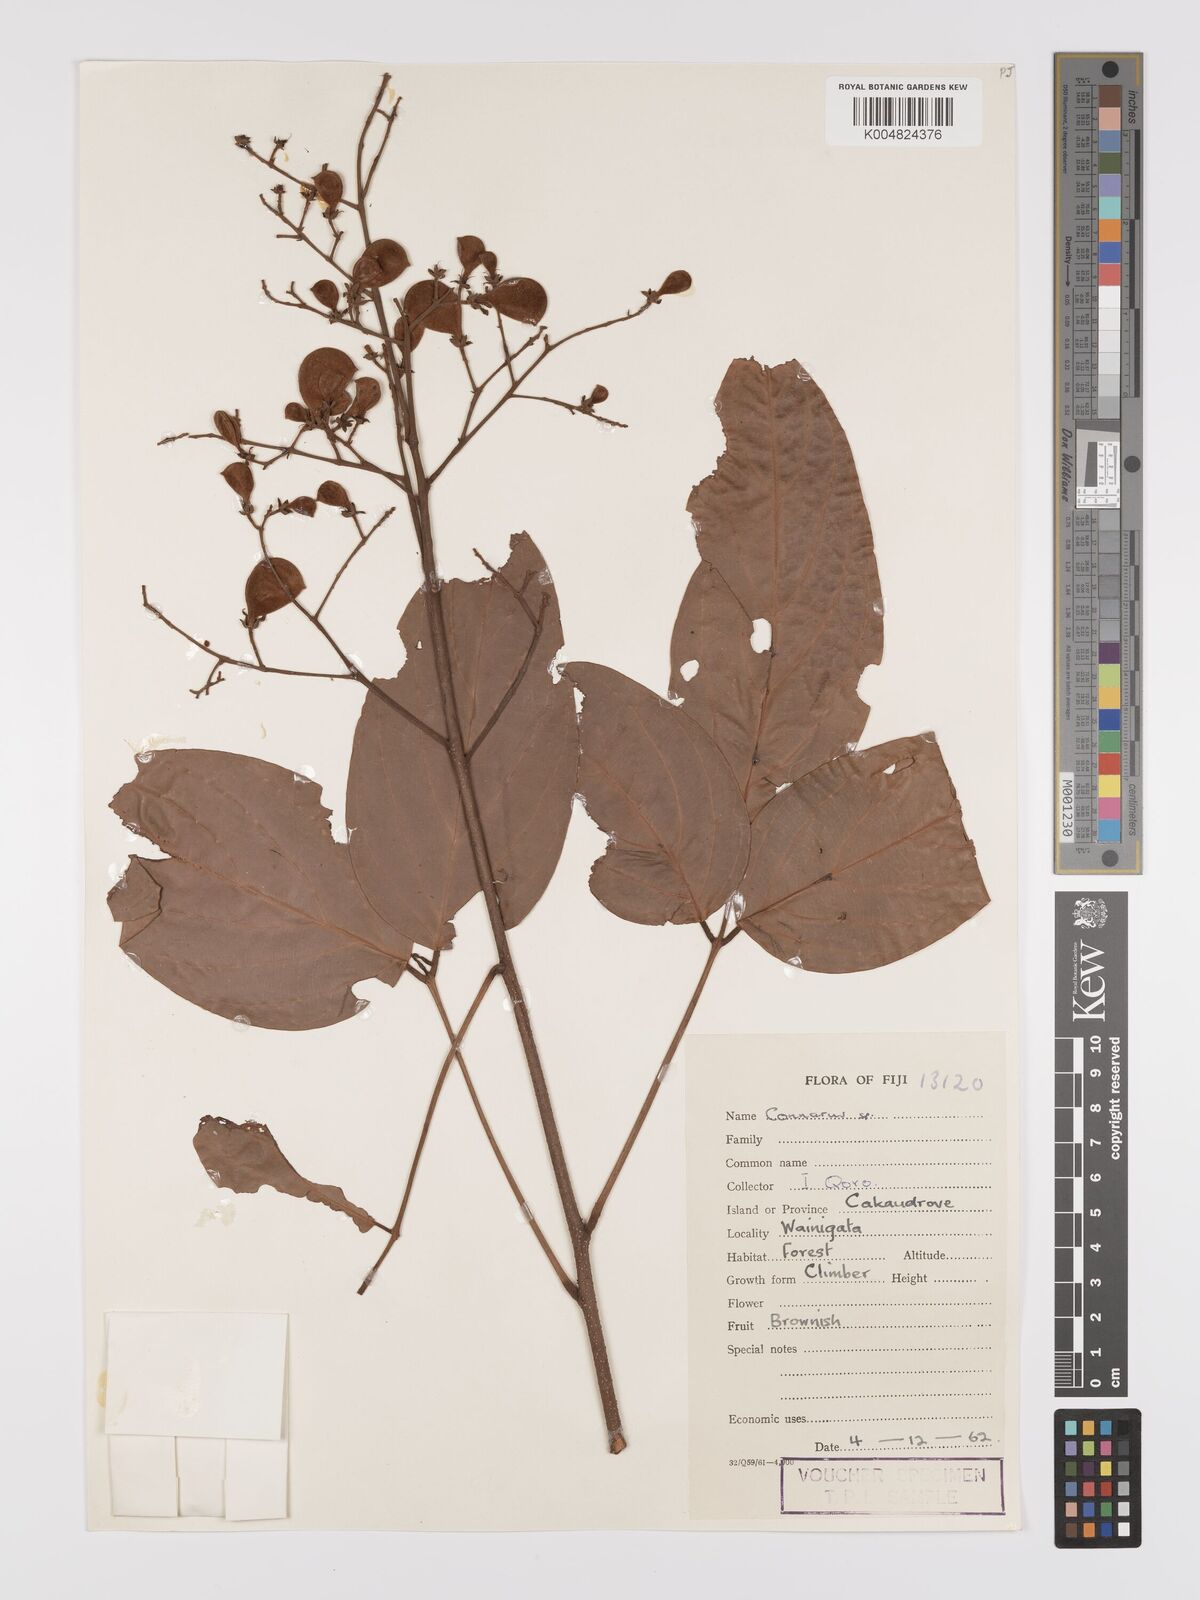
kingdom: Plantae
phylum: Tracheophyta
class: Magnoliopsida
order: Oxalidales
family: Connaraceae
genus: Connarus
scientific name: Connarus pickeringii
